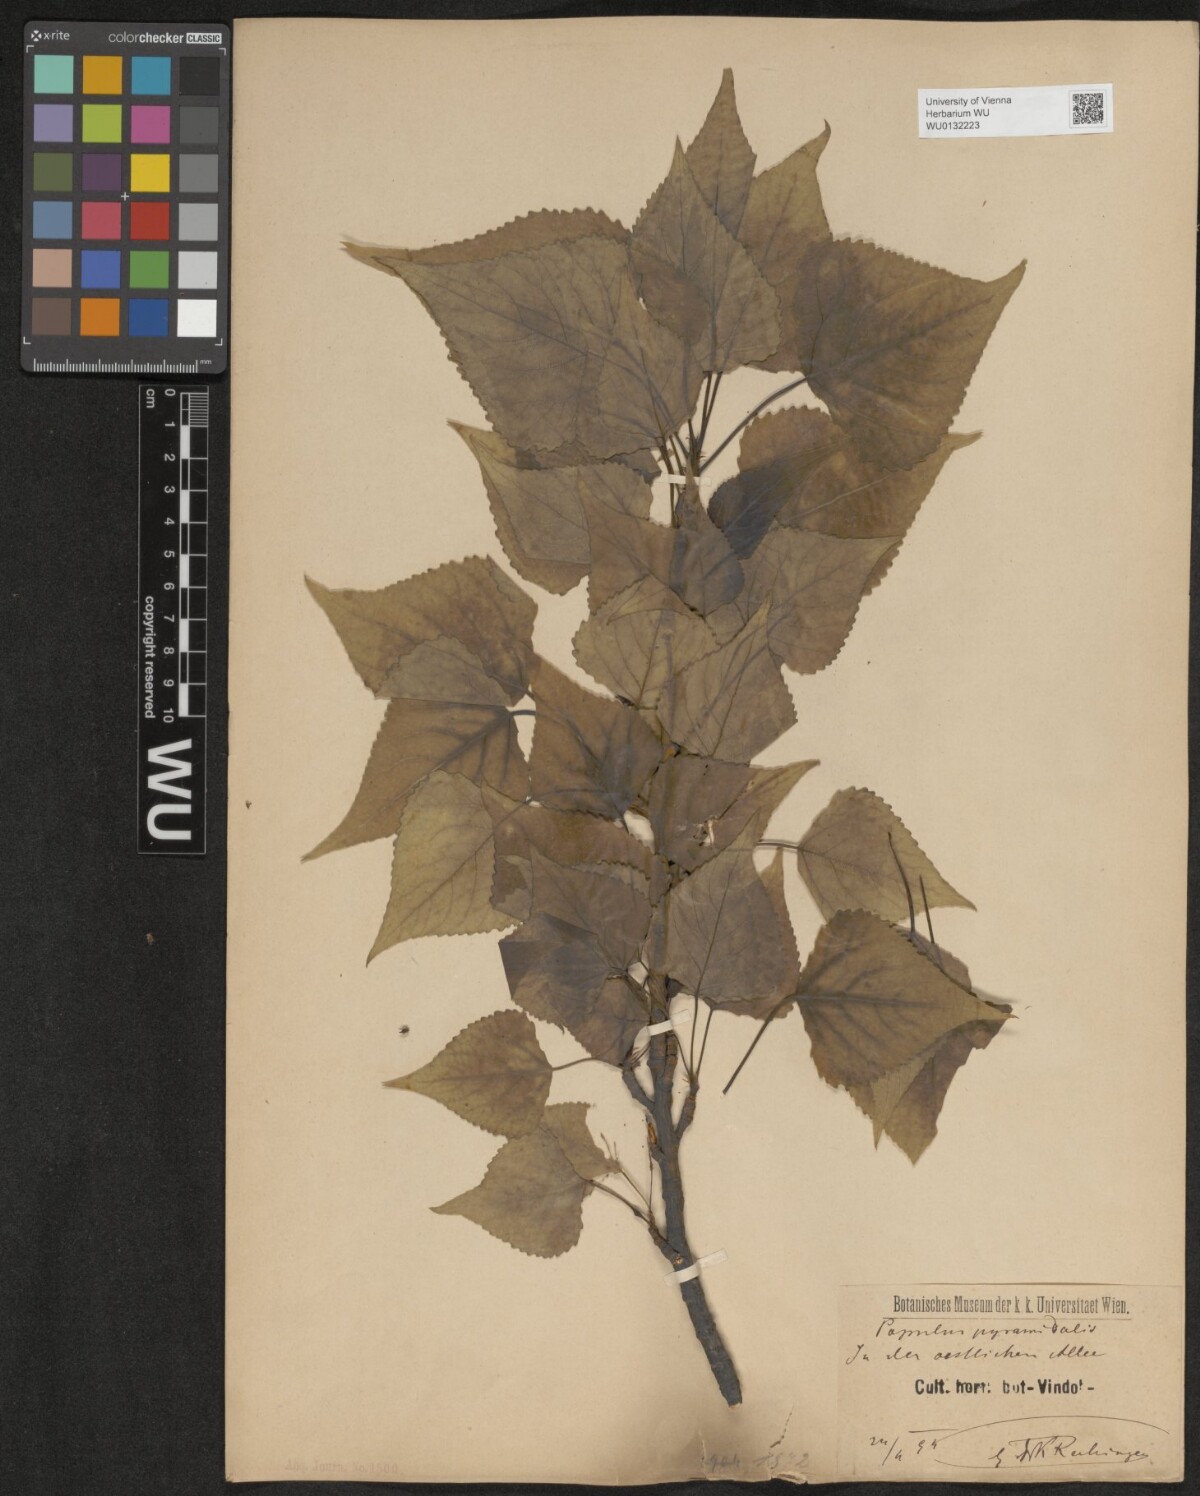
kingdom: Plantae
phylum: Tracheophyta
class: Magnoliopsida
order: Malpighiales
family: Salicaceae
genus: Populus
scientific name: Populus nigra
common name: Black poplar
